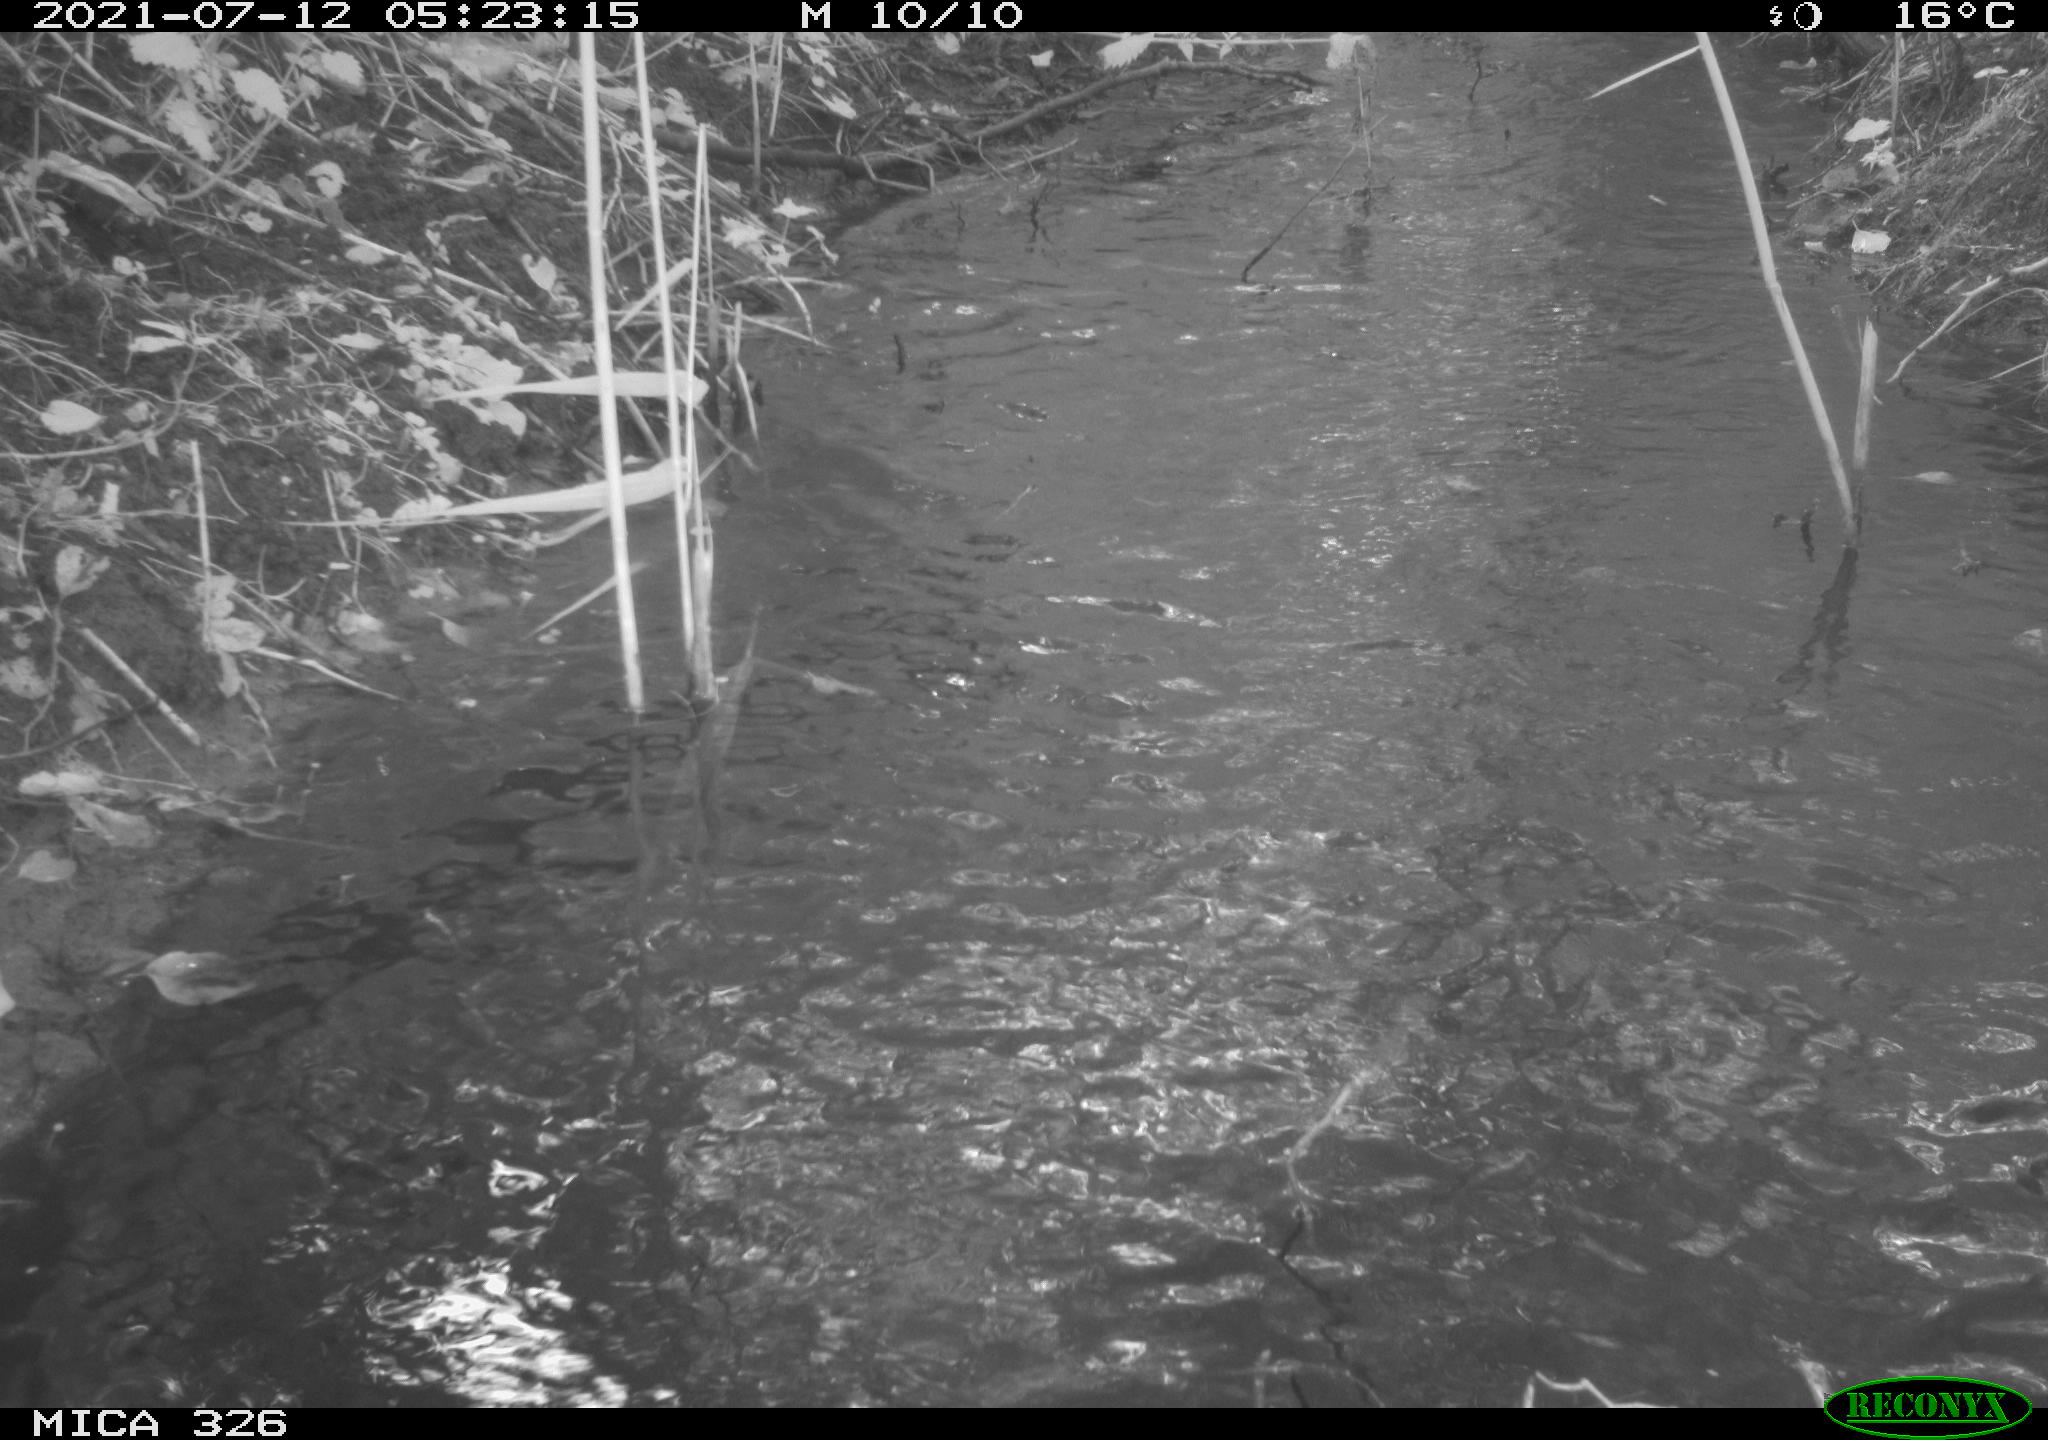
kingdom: Animalia
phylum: Chordata
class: Mammalia
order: Carnivora
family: Mustelidae
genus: Lutra
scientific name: Lutra lutra
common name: European otter
